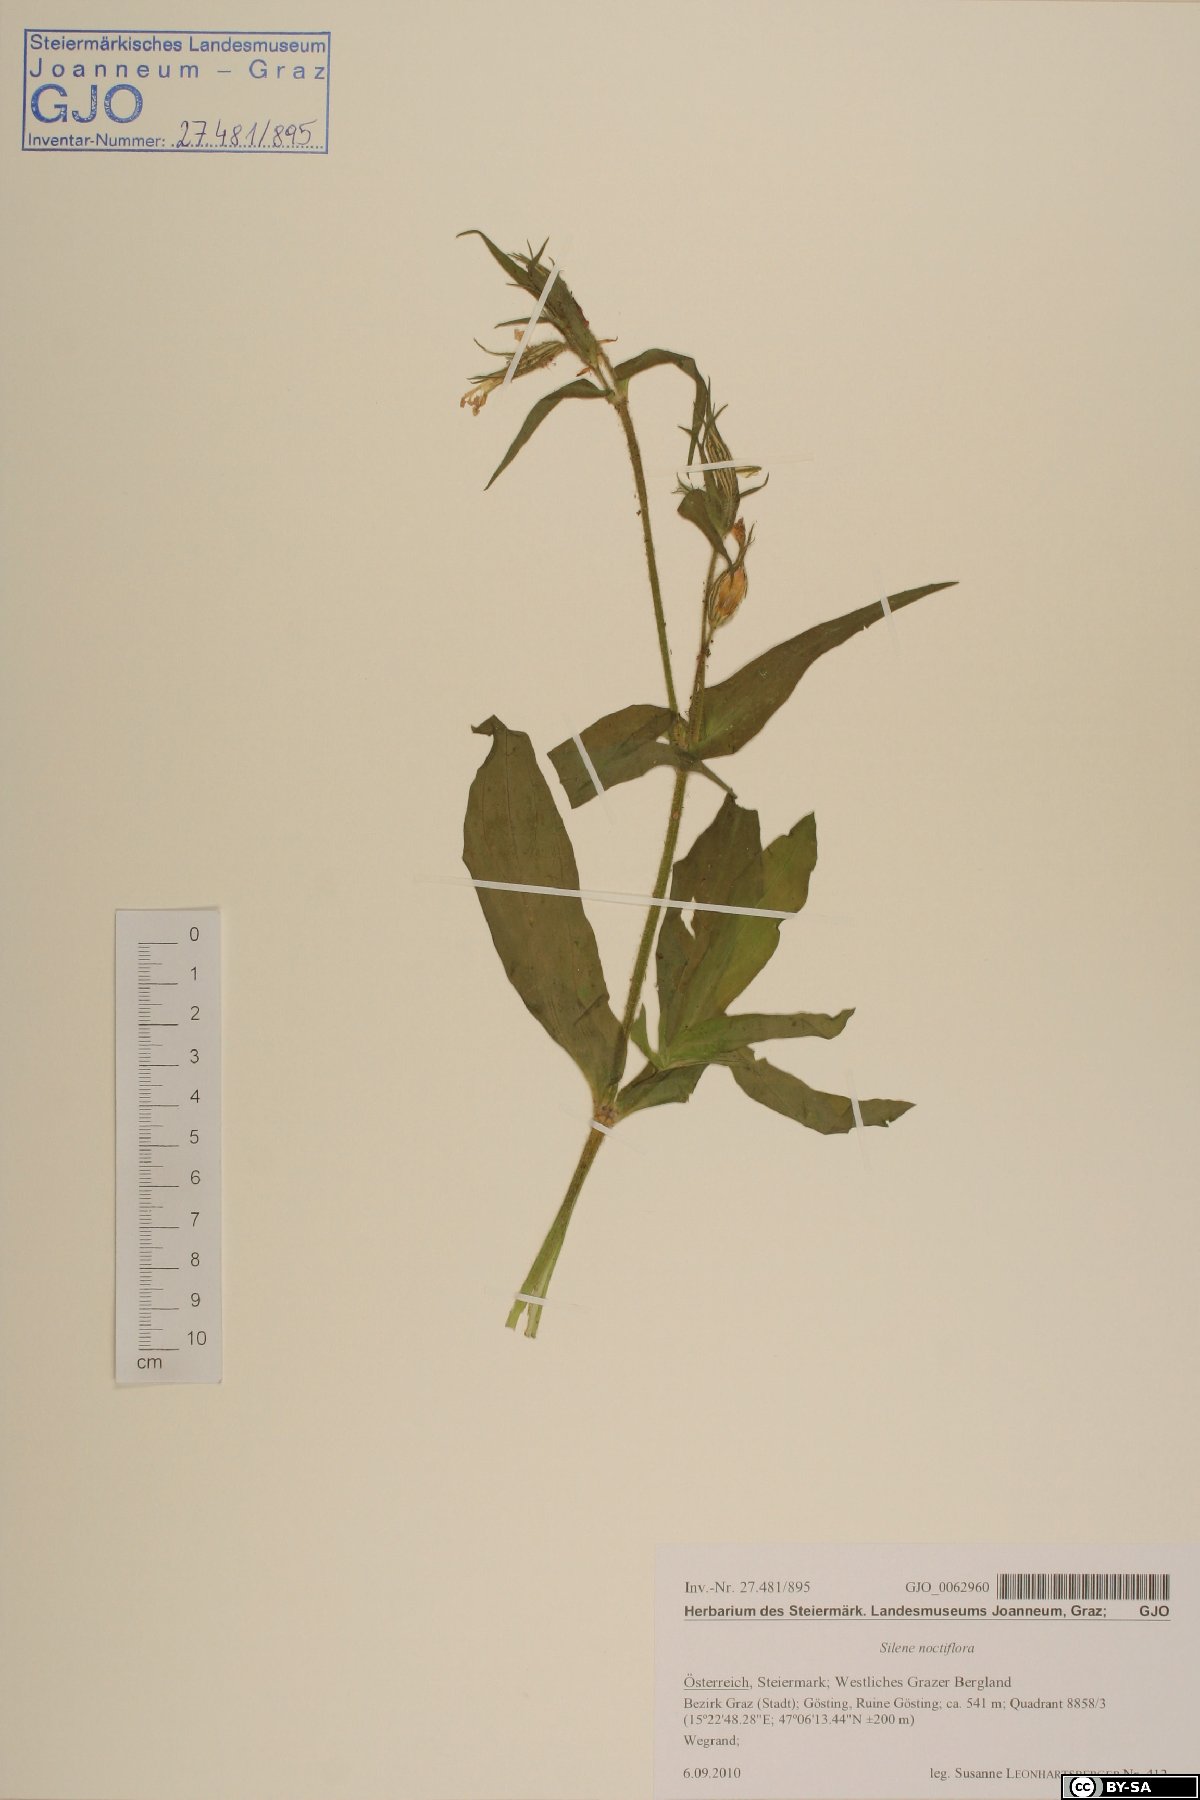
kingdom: Plantae
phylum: Tracheophyta
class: Magnoliopsida
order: Caryophyllales
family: Caryophyllaceae
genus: Silene
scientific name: Silene noctiflora
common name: Night-flowering catchfly
